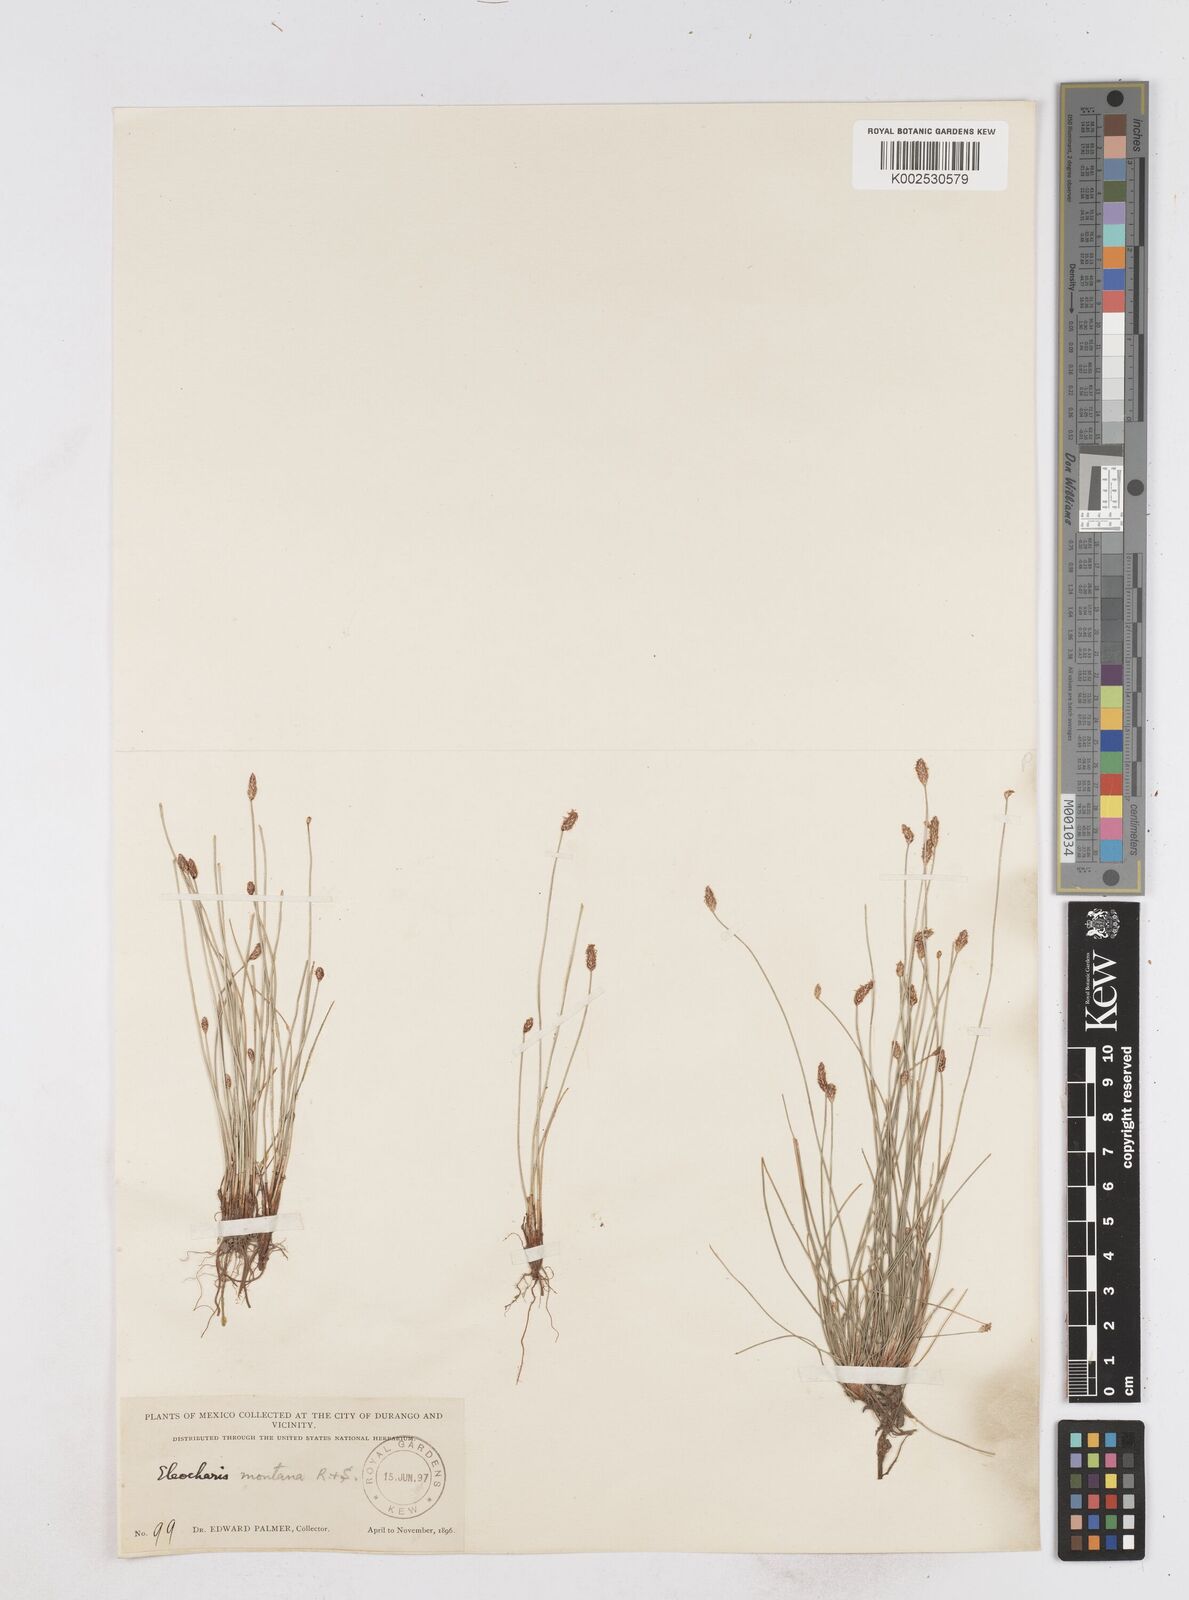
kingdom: Plantae
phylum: Tracheophyta
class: Liliopsida
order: Poales
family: Cyperaceae
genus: Eleocharis
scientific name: Eleocharis montana
